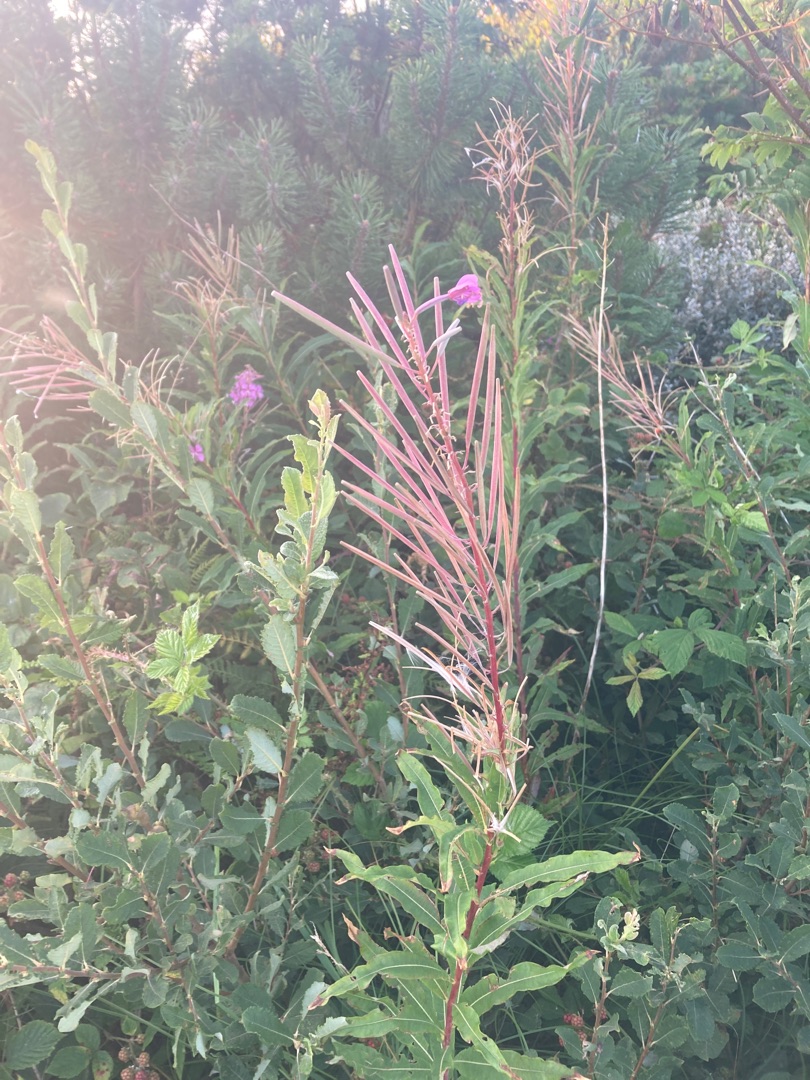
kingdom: Plantae
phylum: Tracheophyta
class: Magnoliopsida
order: Myrtales
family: Onagraceae
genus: Chamaenerion
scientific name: Chamaenerion angustifolium
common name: Gederams
